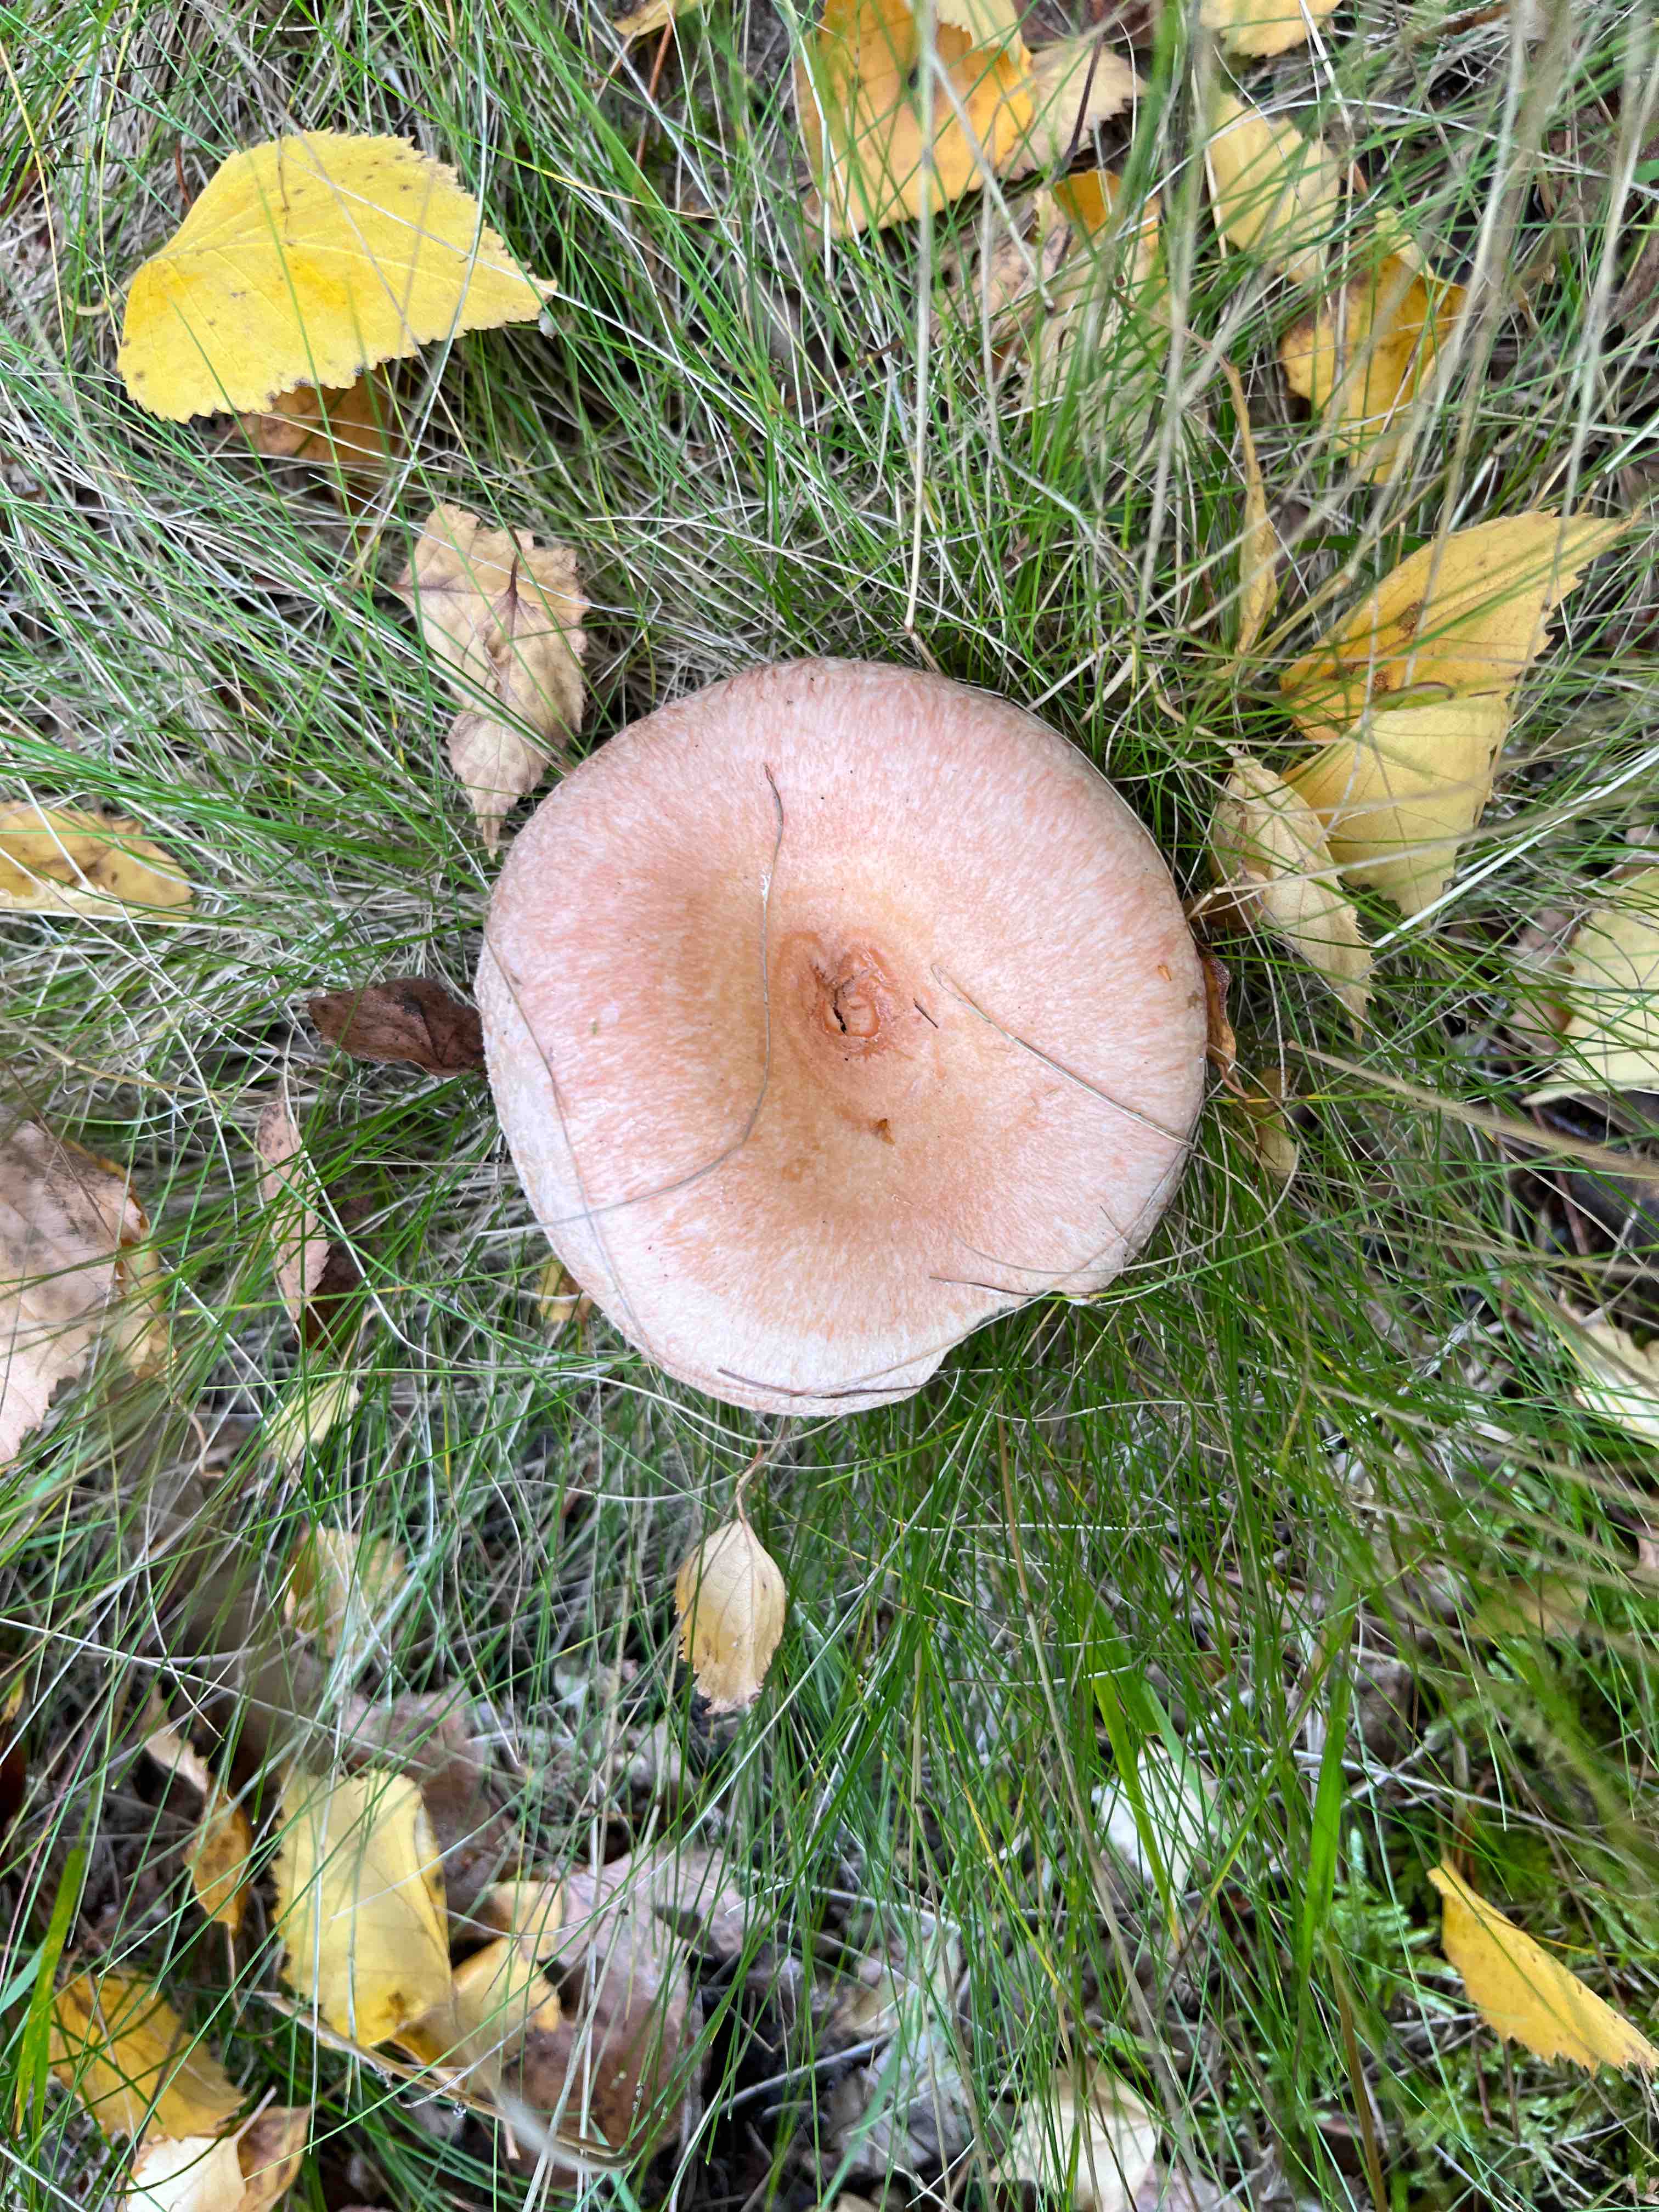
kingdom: Fungi
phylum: Basidiomycota
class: Agaricomycetes
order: Russulales
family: Russulaceae
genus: Lactarius
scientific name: Lactarius
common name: mælkehat
